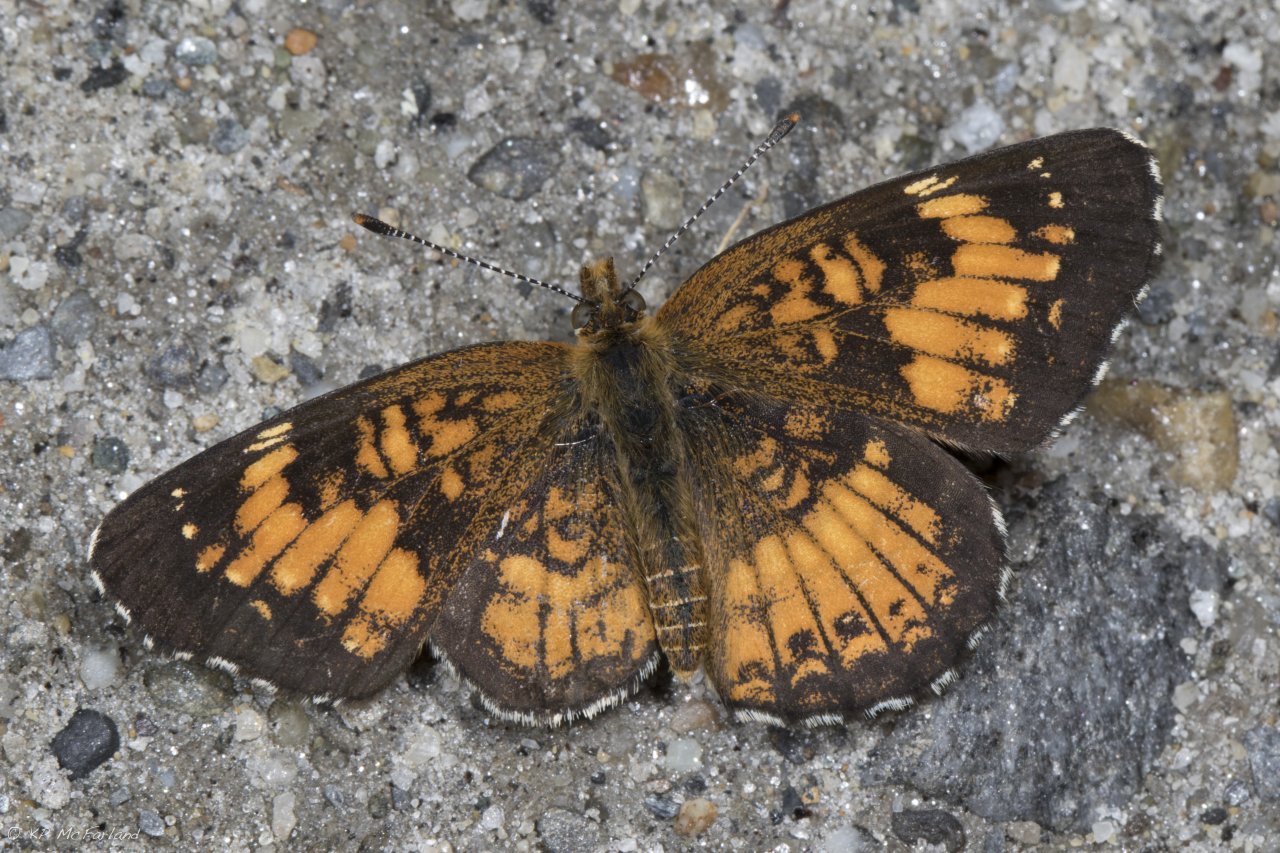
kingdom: Animalia
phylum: Arthropoda
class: Insecta
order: Lepidoptera
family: Nymphalidae
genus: Chlosyne
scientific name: Chlosyne harrisii
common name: Harris's Checkerspot
